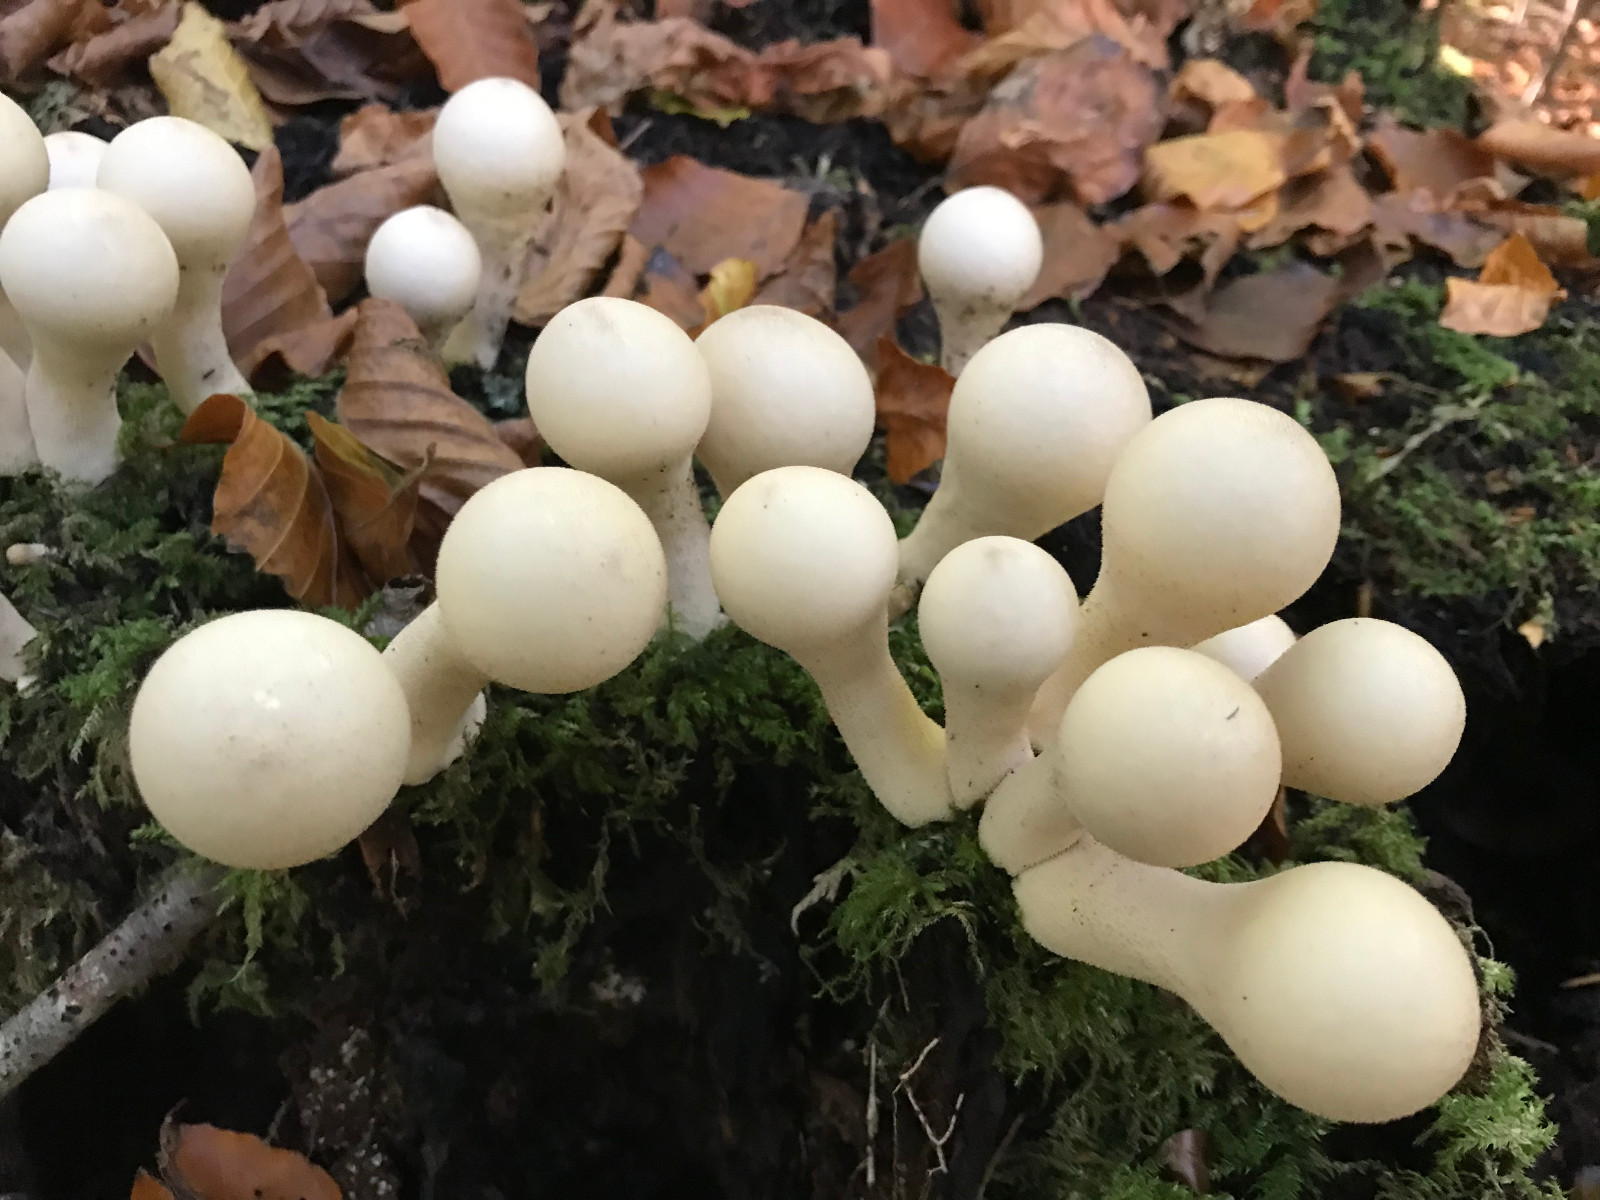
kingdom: Fungi
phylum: Basidiomycota
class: Agaricomycetes
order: Agaricales
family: Lycoperdaceae
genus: Apioperdon
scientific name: Apioperdon pyriforme
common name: pære-støvbold
